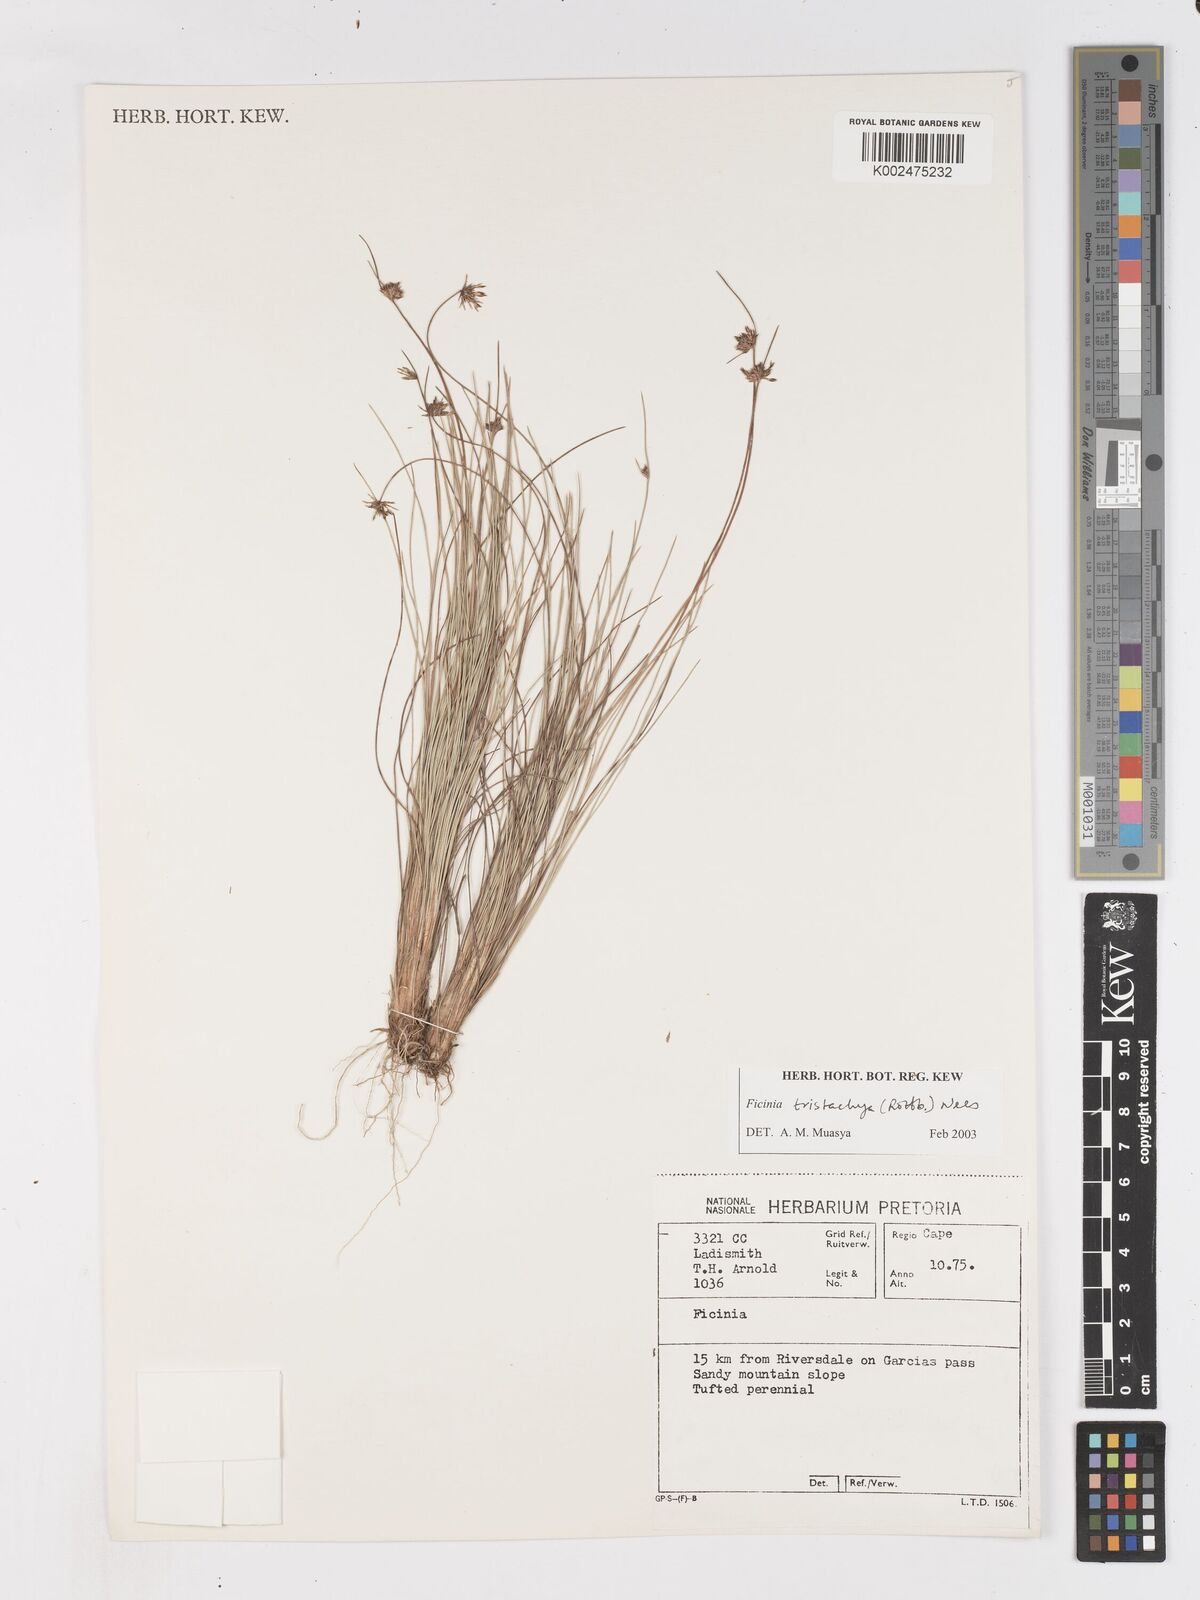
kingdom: Plantae
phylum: Tracheophyta
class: Liliopsida
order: Poales
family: Cyperaceae
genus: Ficinia
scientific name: Ficinia tristachya
